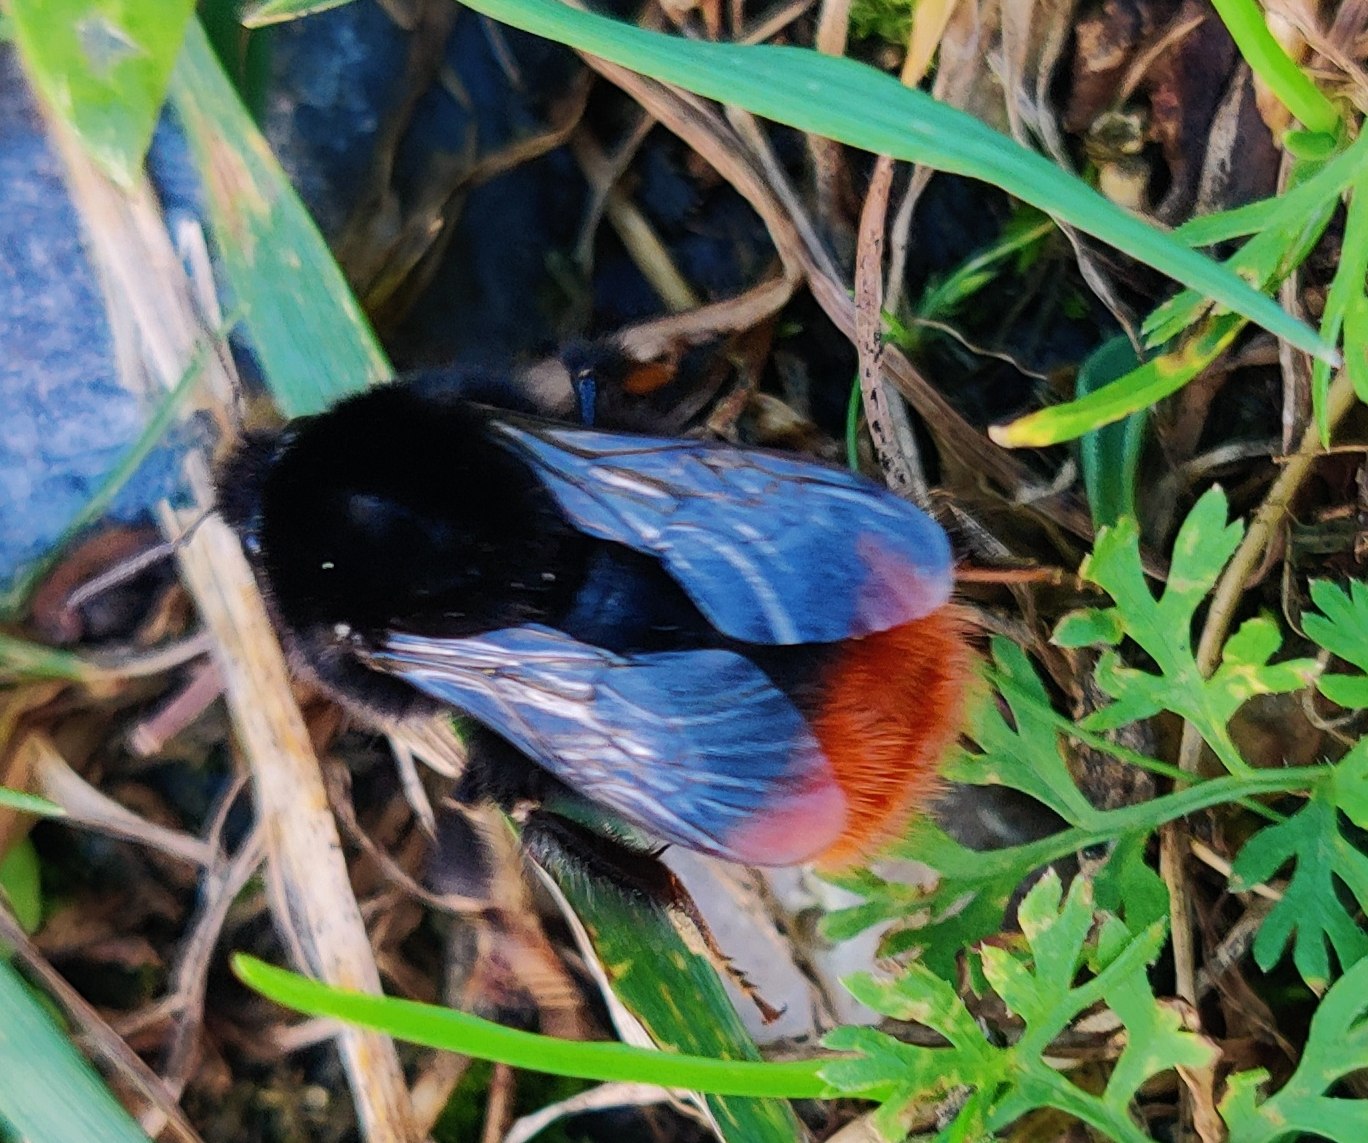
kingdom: Animalia
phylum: Arthropoda
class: Insecta
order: Hymenoptera
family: Apidae
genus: Bombus
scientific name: Bombus lapidarius
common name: Stenhumle
